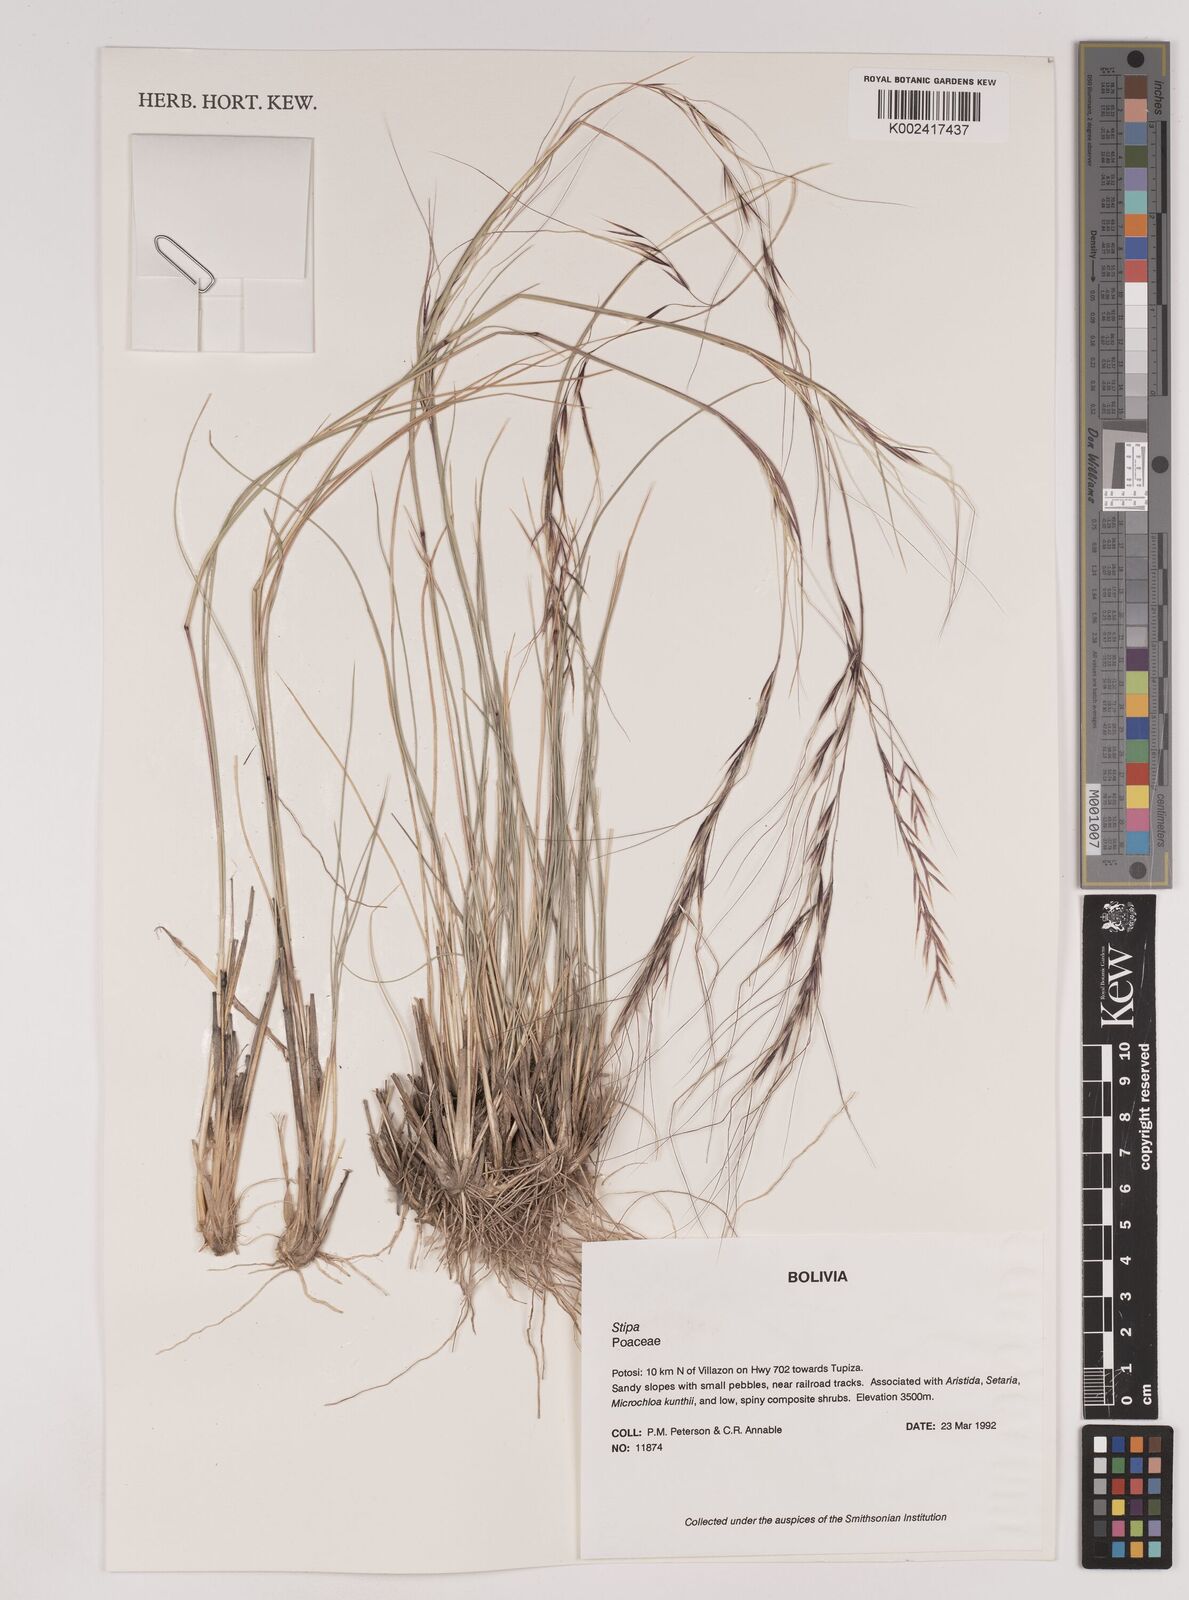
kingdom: Plantae
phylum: Tracheophyta
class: Liliopsida
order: Poales
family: Poaceae
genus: Nassella
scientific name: Nassella arcuata
